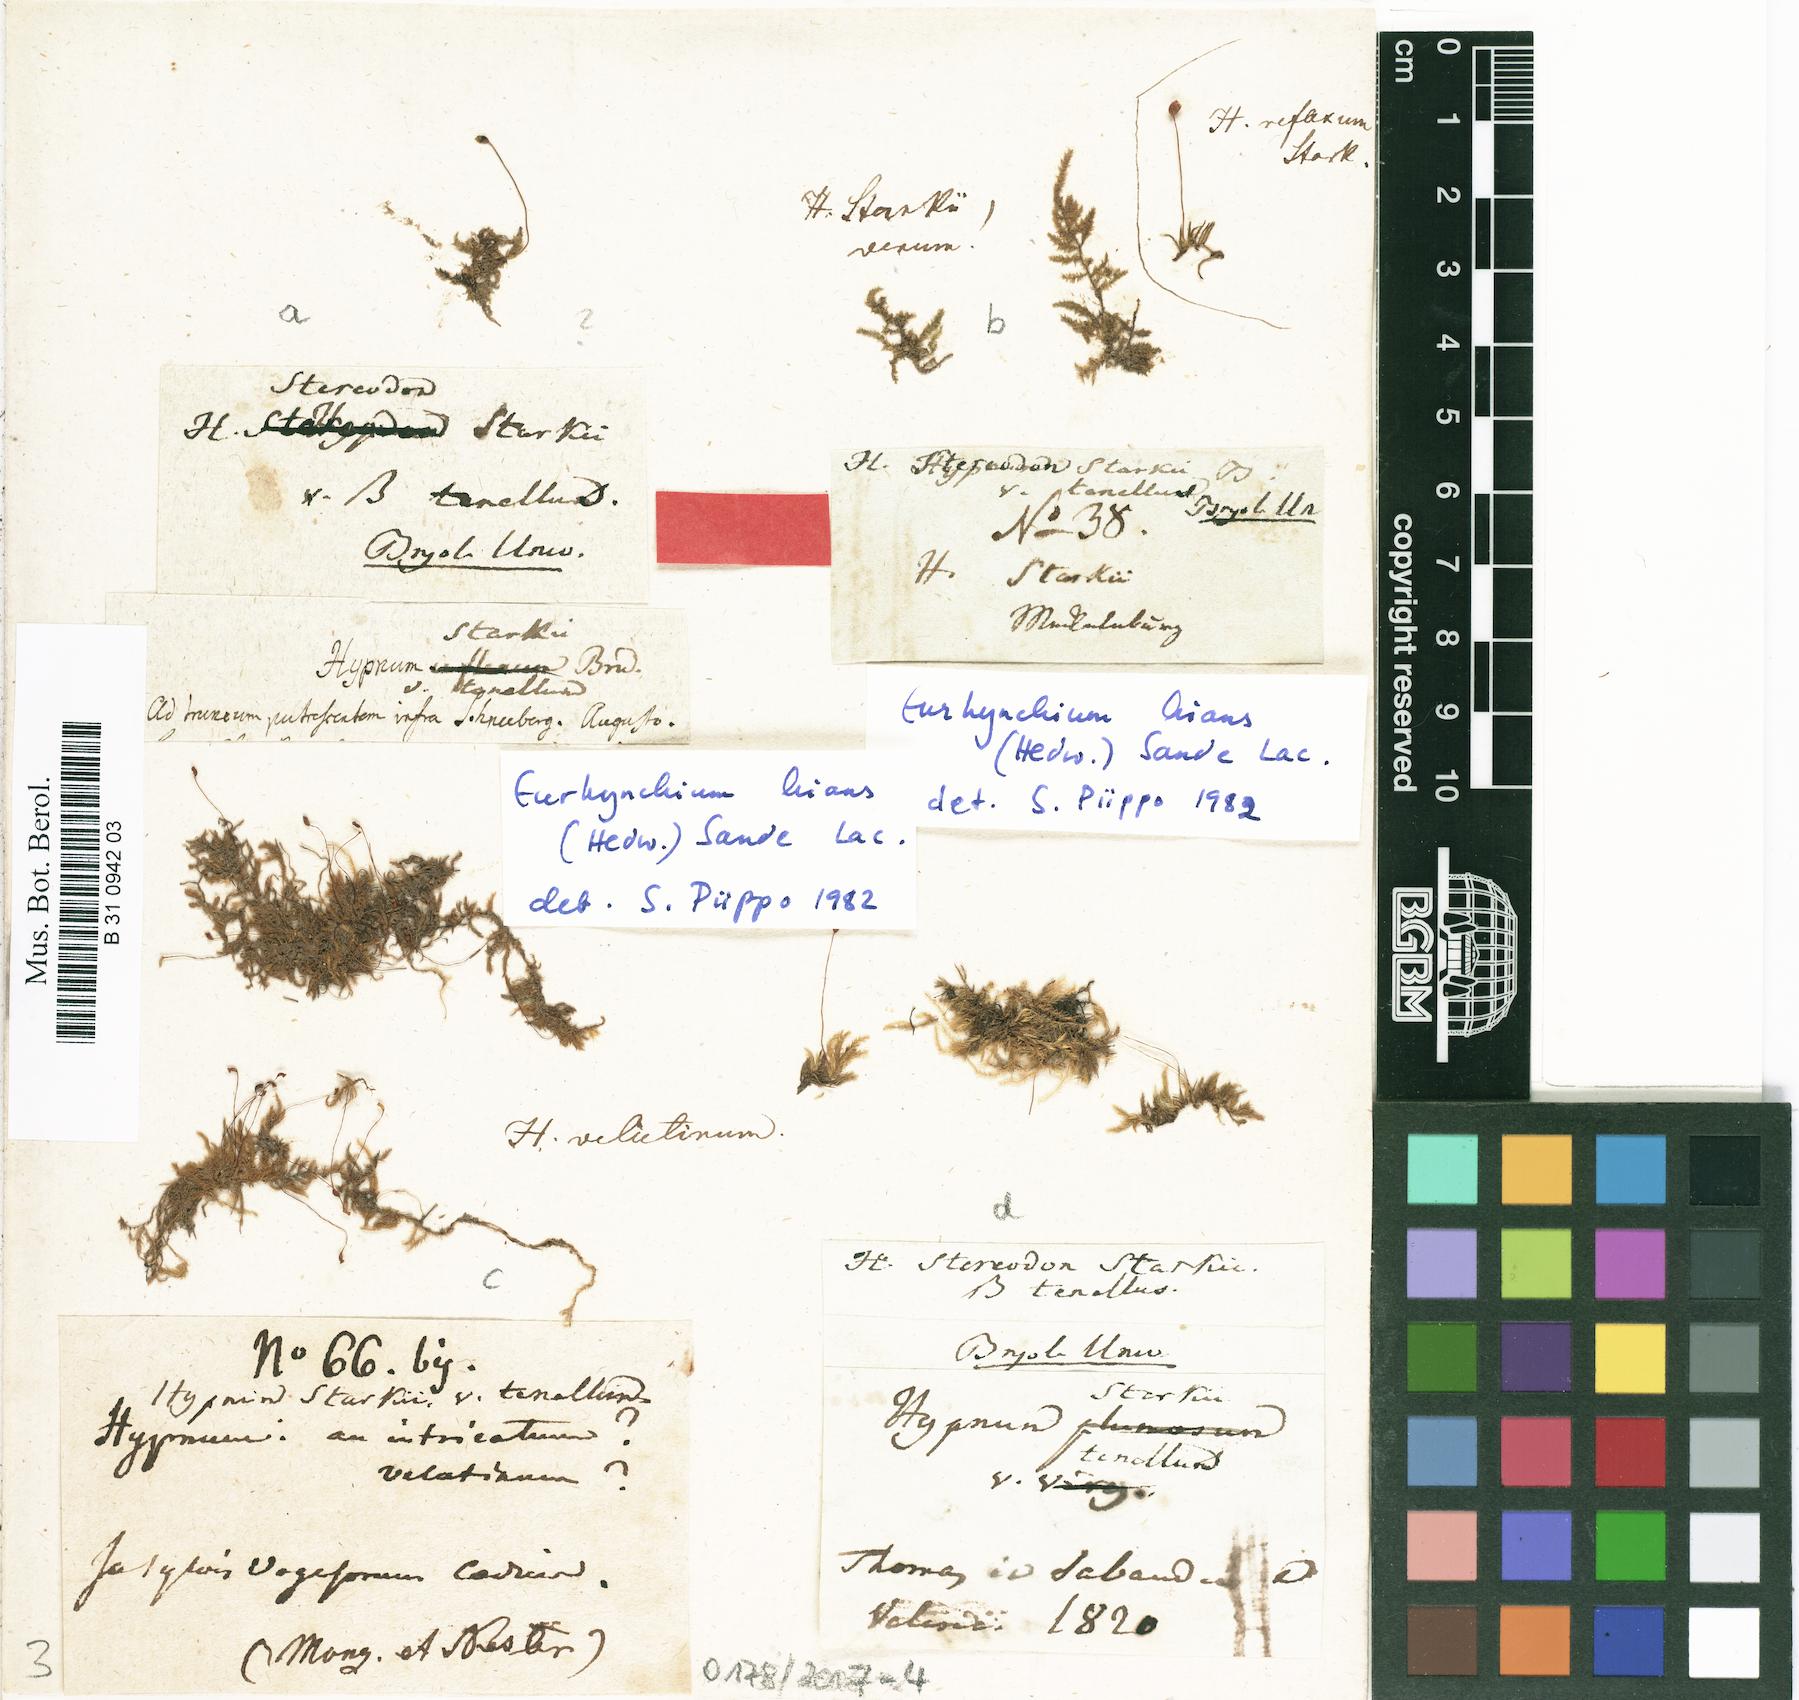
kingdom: Plantae
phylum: Bryophyta
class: Bryopsida
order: Hypnales
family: Brachytheciaceae
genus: Sciuro-hypnum
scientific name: Sciuro-hypnum starkei
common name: Starke's feather-moss
